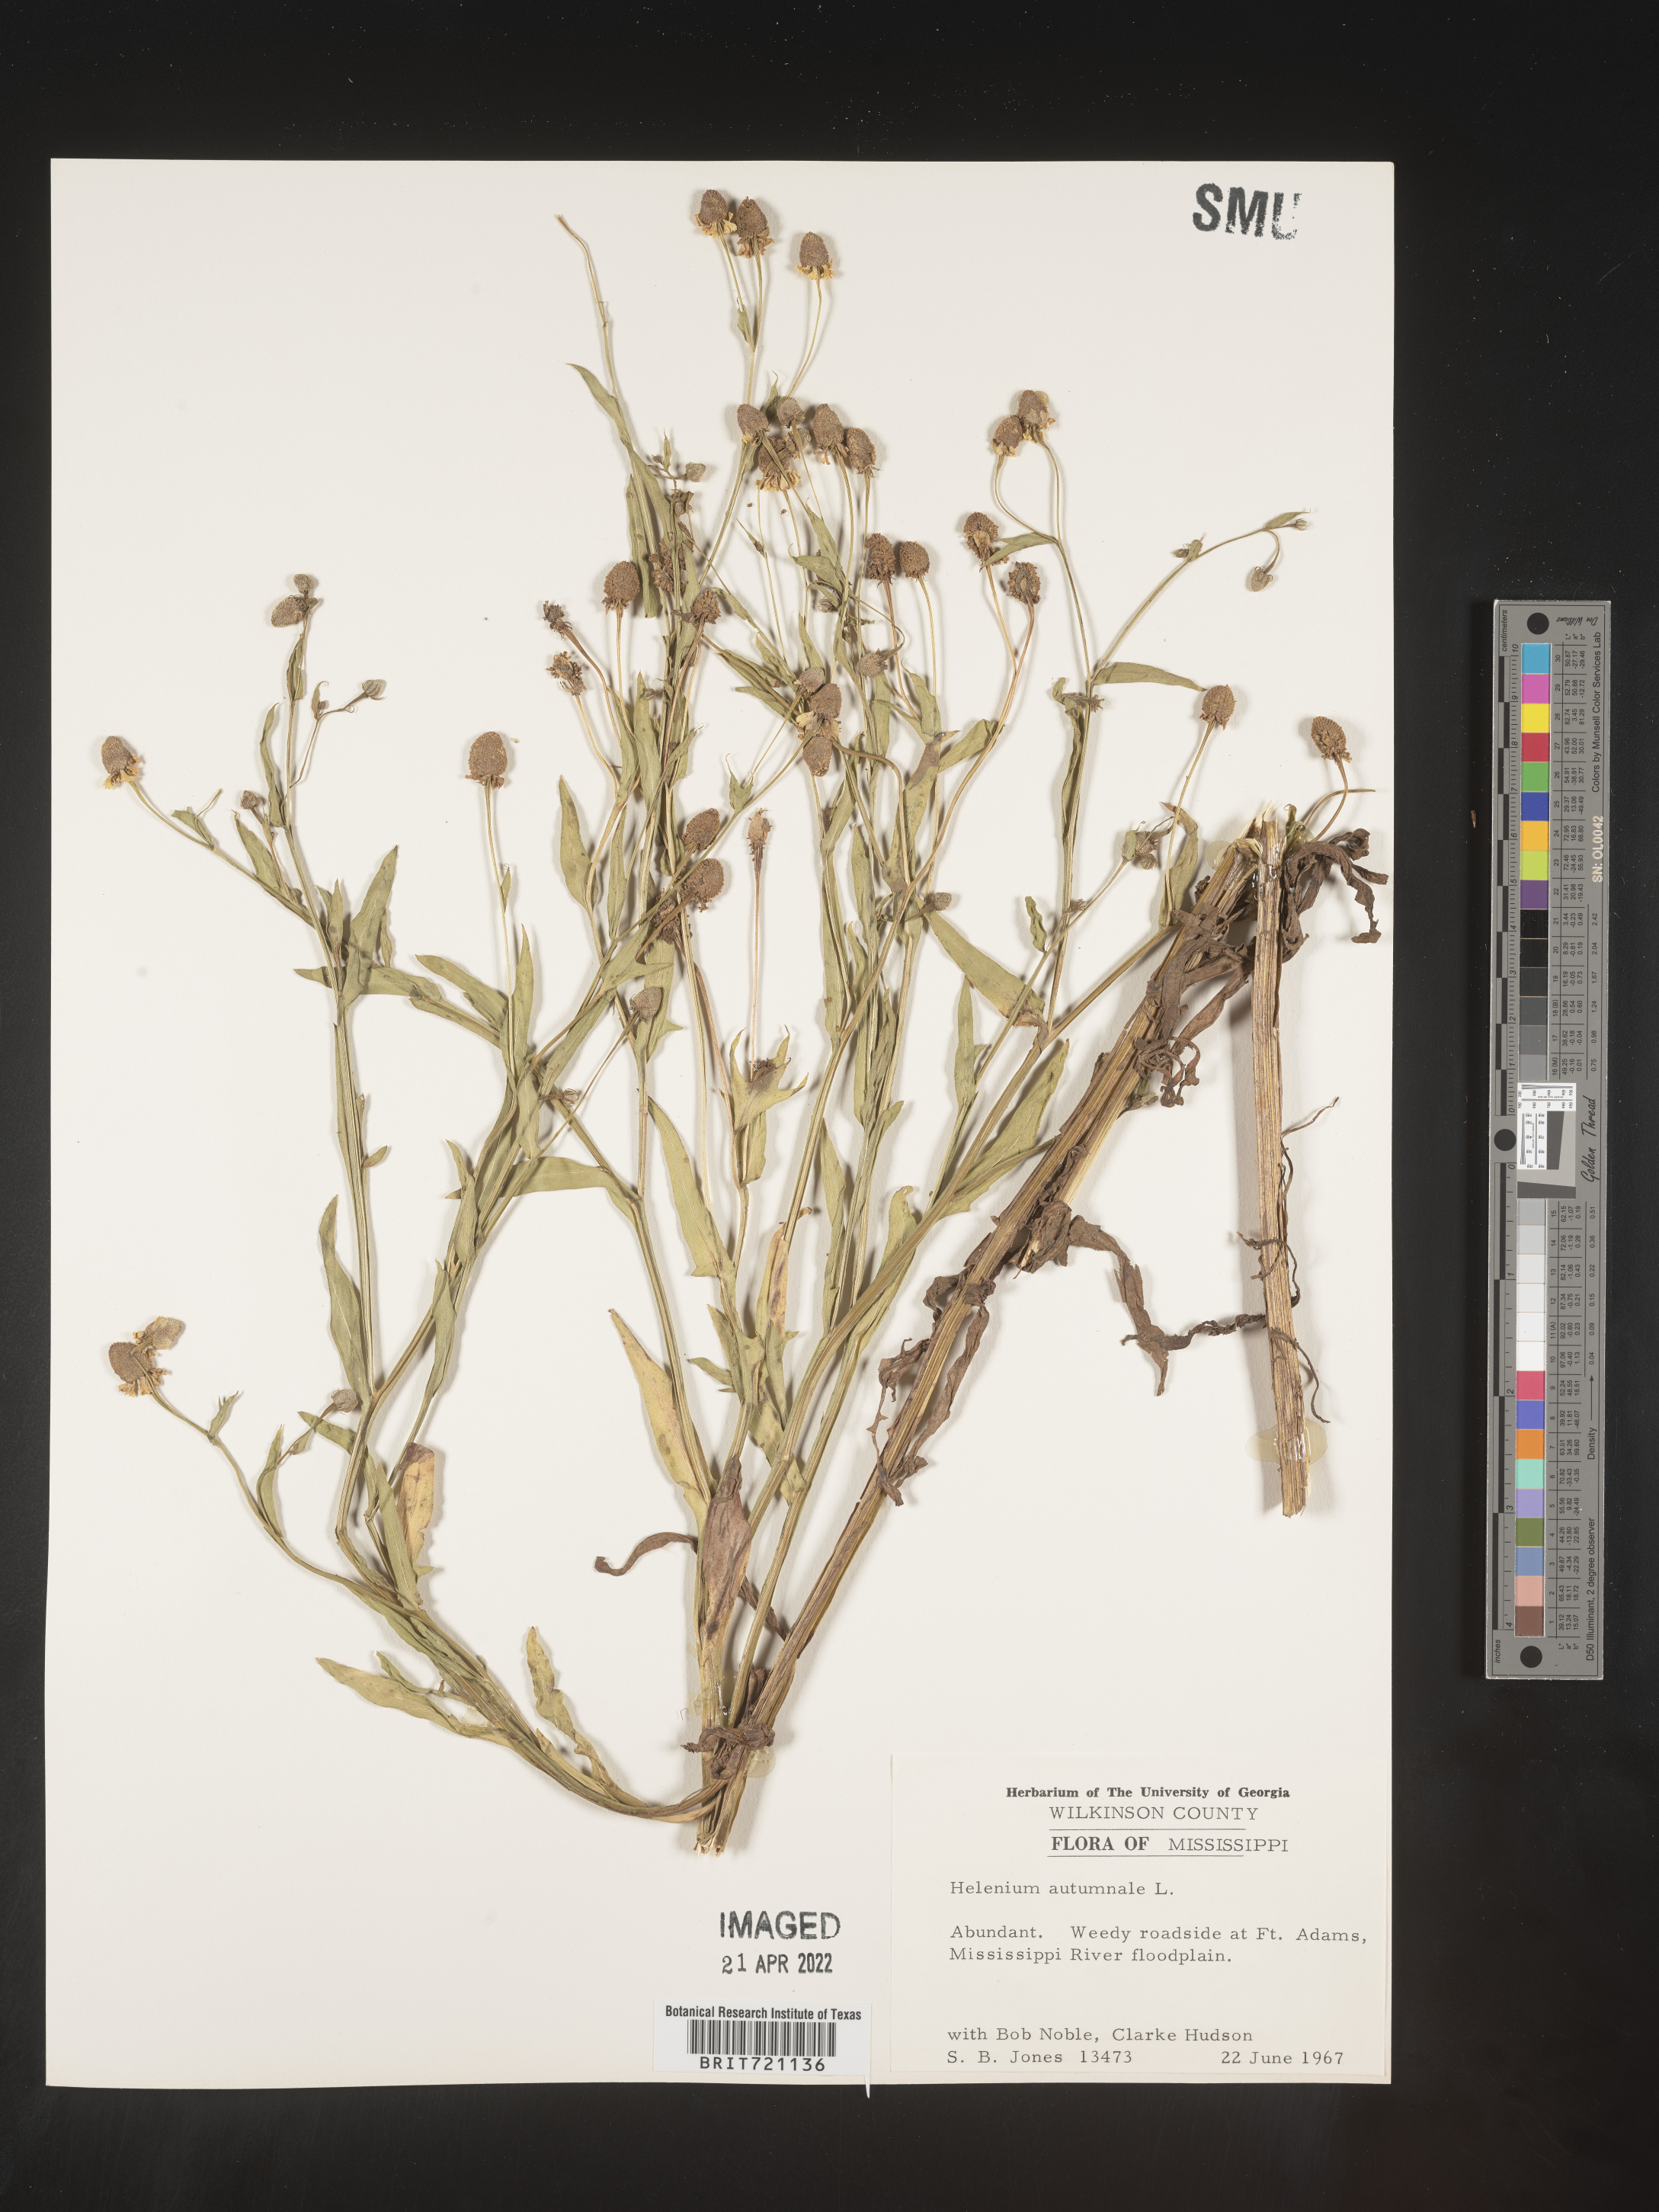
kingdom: Plantae
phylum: Tracheophyta
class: Magnoliopsida
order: Asterales
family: Asteraceae
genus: Helenium
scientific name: Helenium autumnale
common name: Sneezeweed
